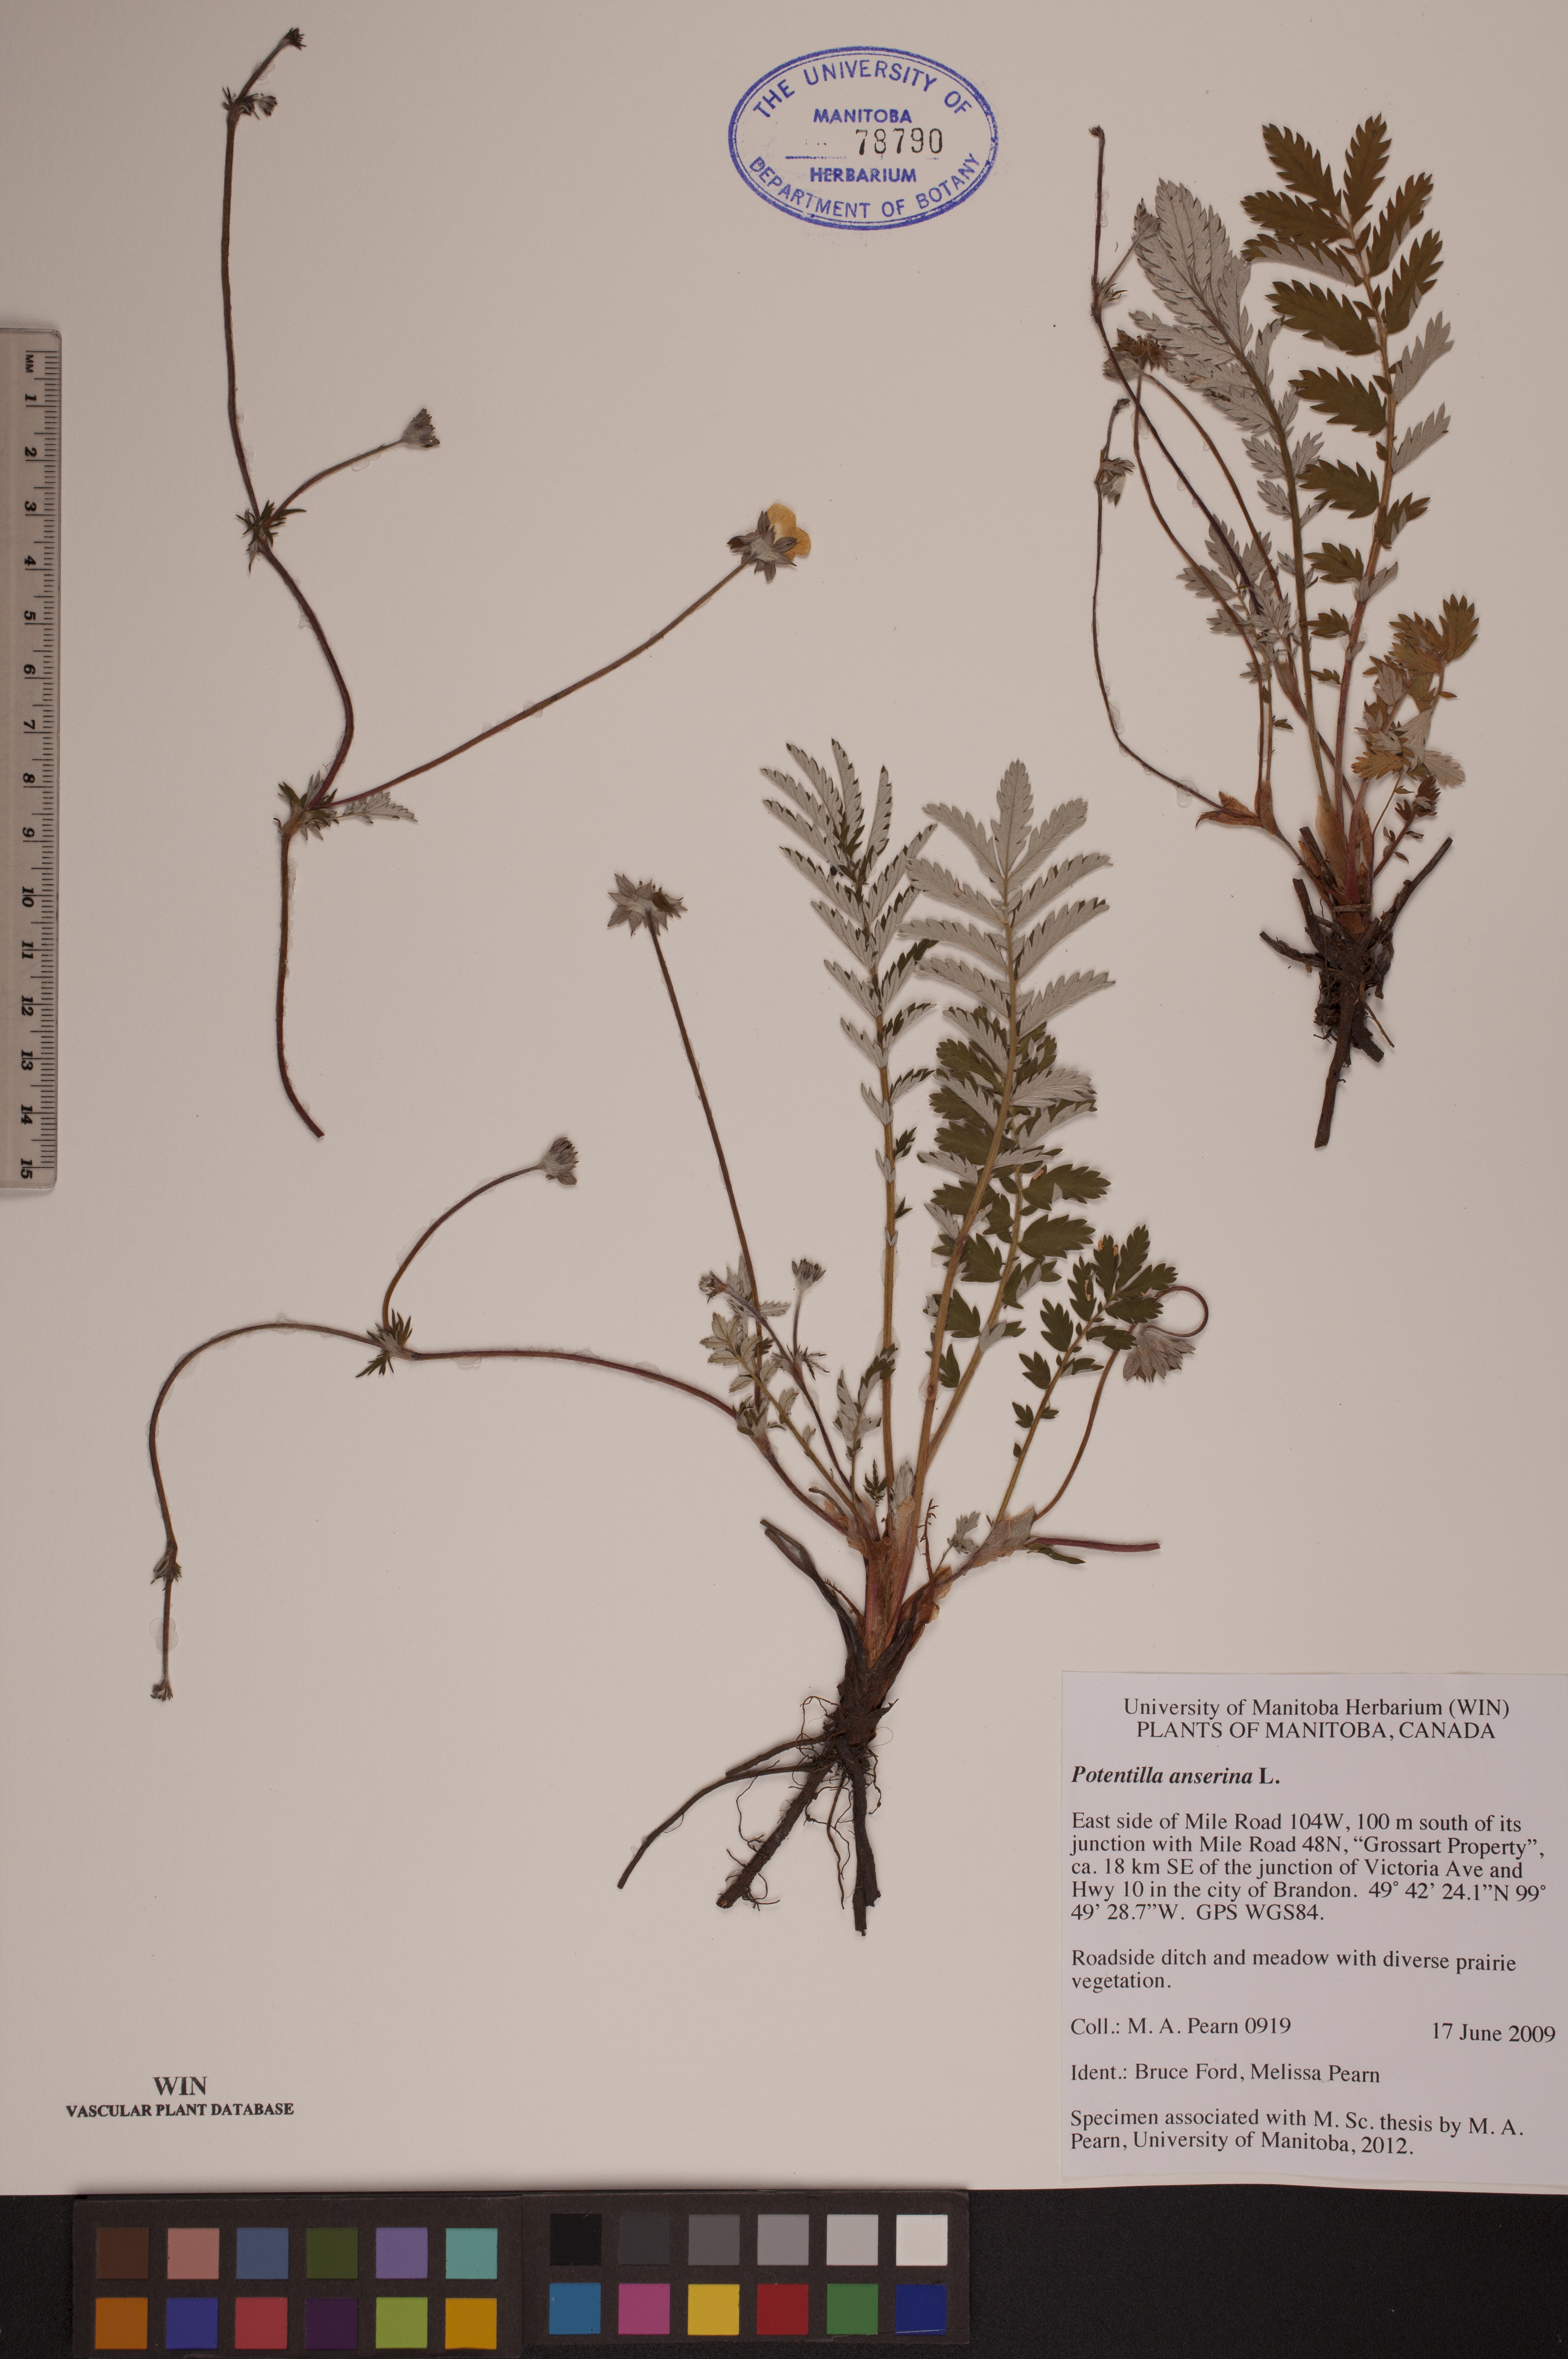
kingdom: Plantae
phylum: Tracheophyta
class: Magnoliopsida
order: Rosales
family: Rosaceae
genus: Argentina
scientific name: Argentina anserina
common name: Common silverweed
